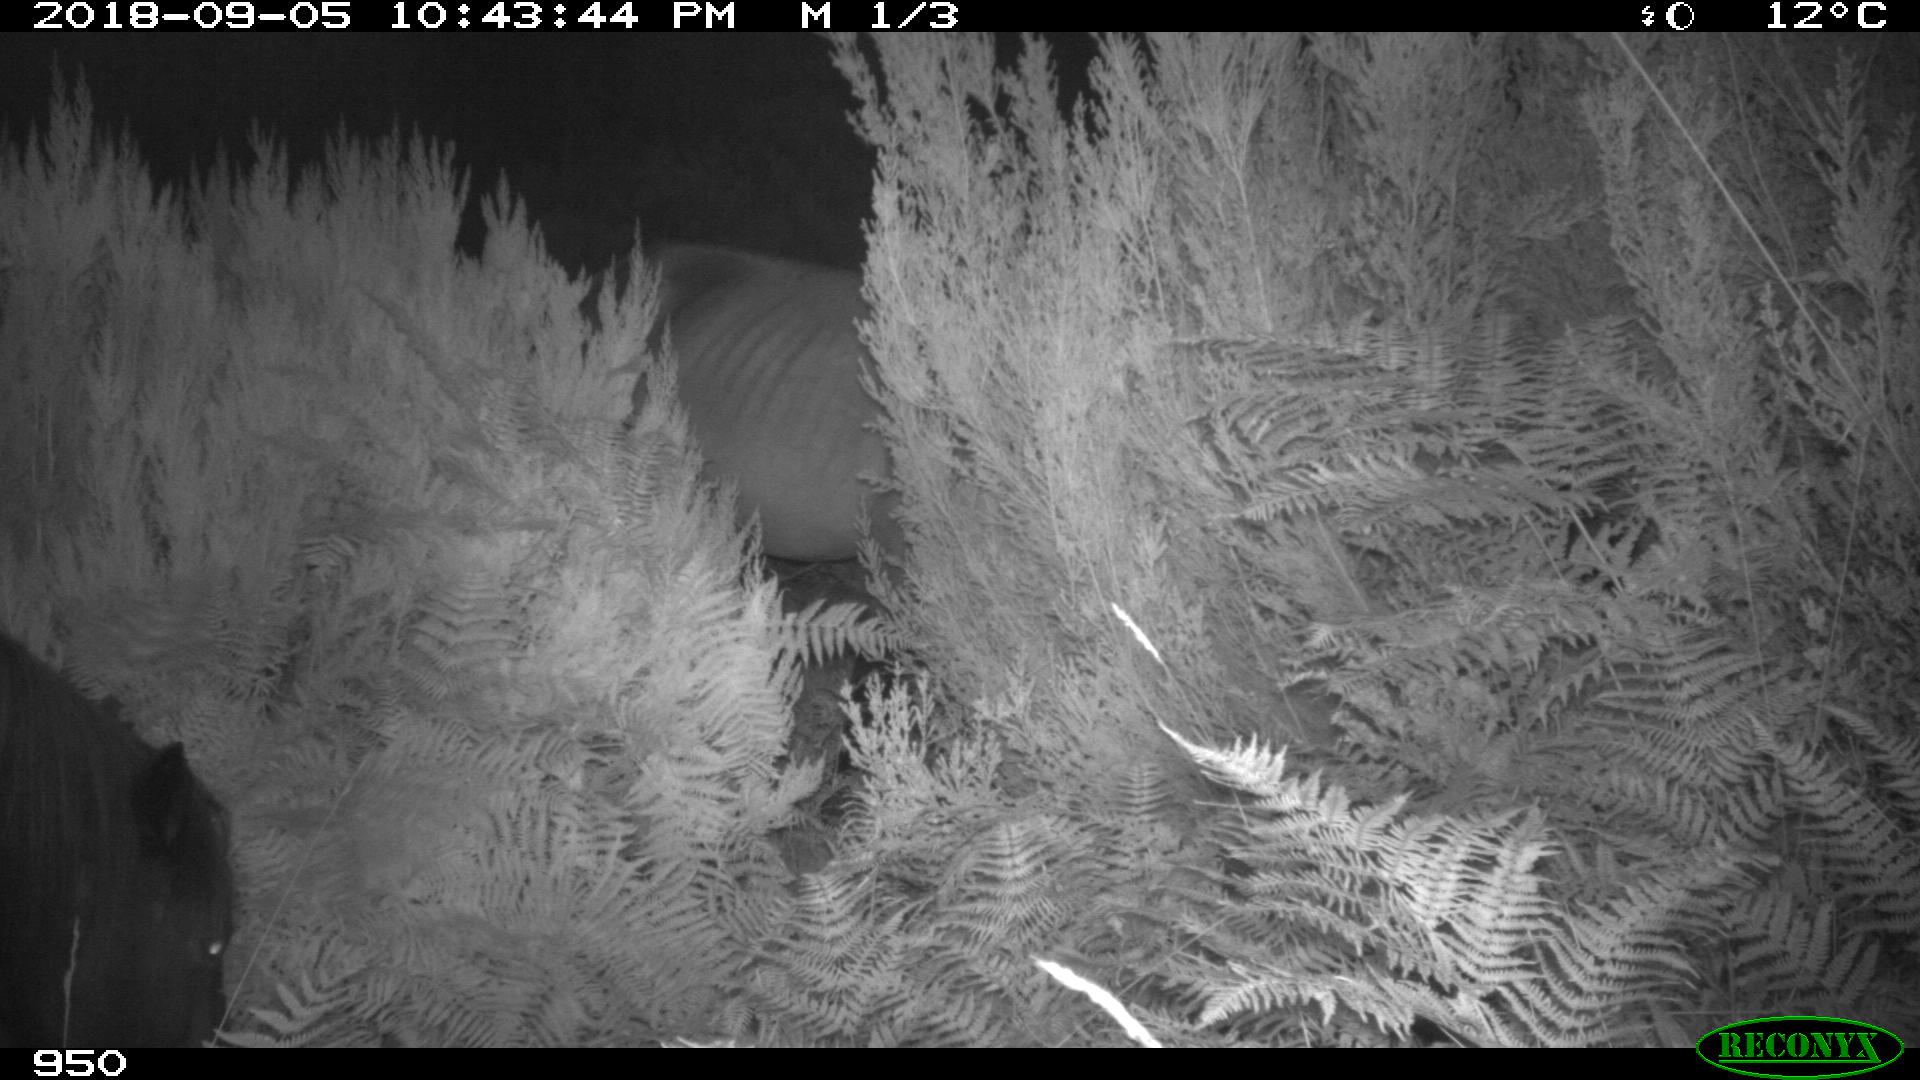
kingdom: Animalia
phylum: Chordata
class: Mammalia
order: Perissodactyla
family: Equidae
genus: Equus
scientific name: Equus caballus
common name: Horse
